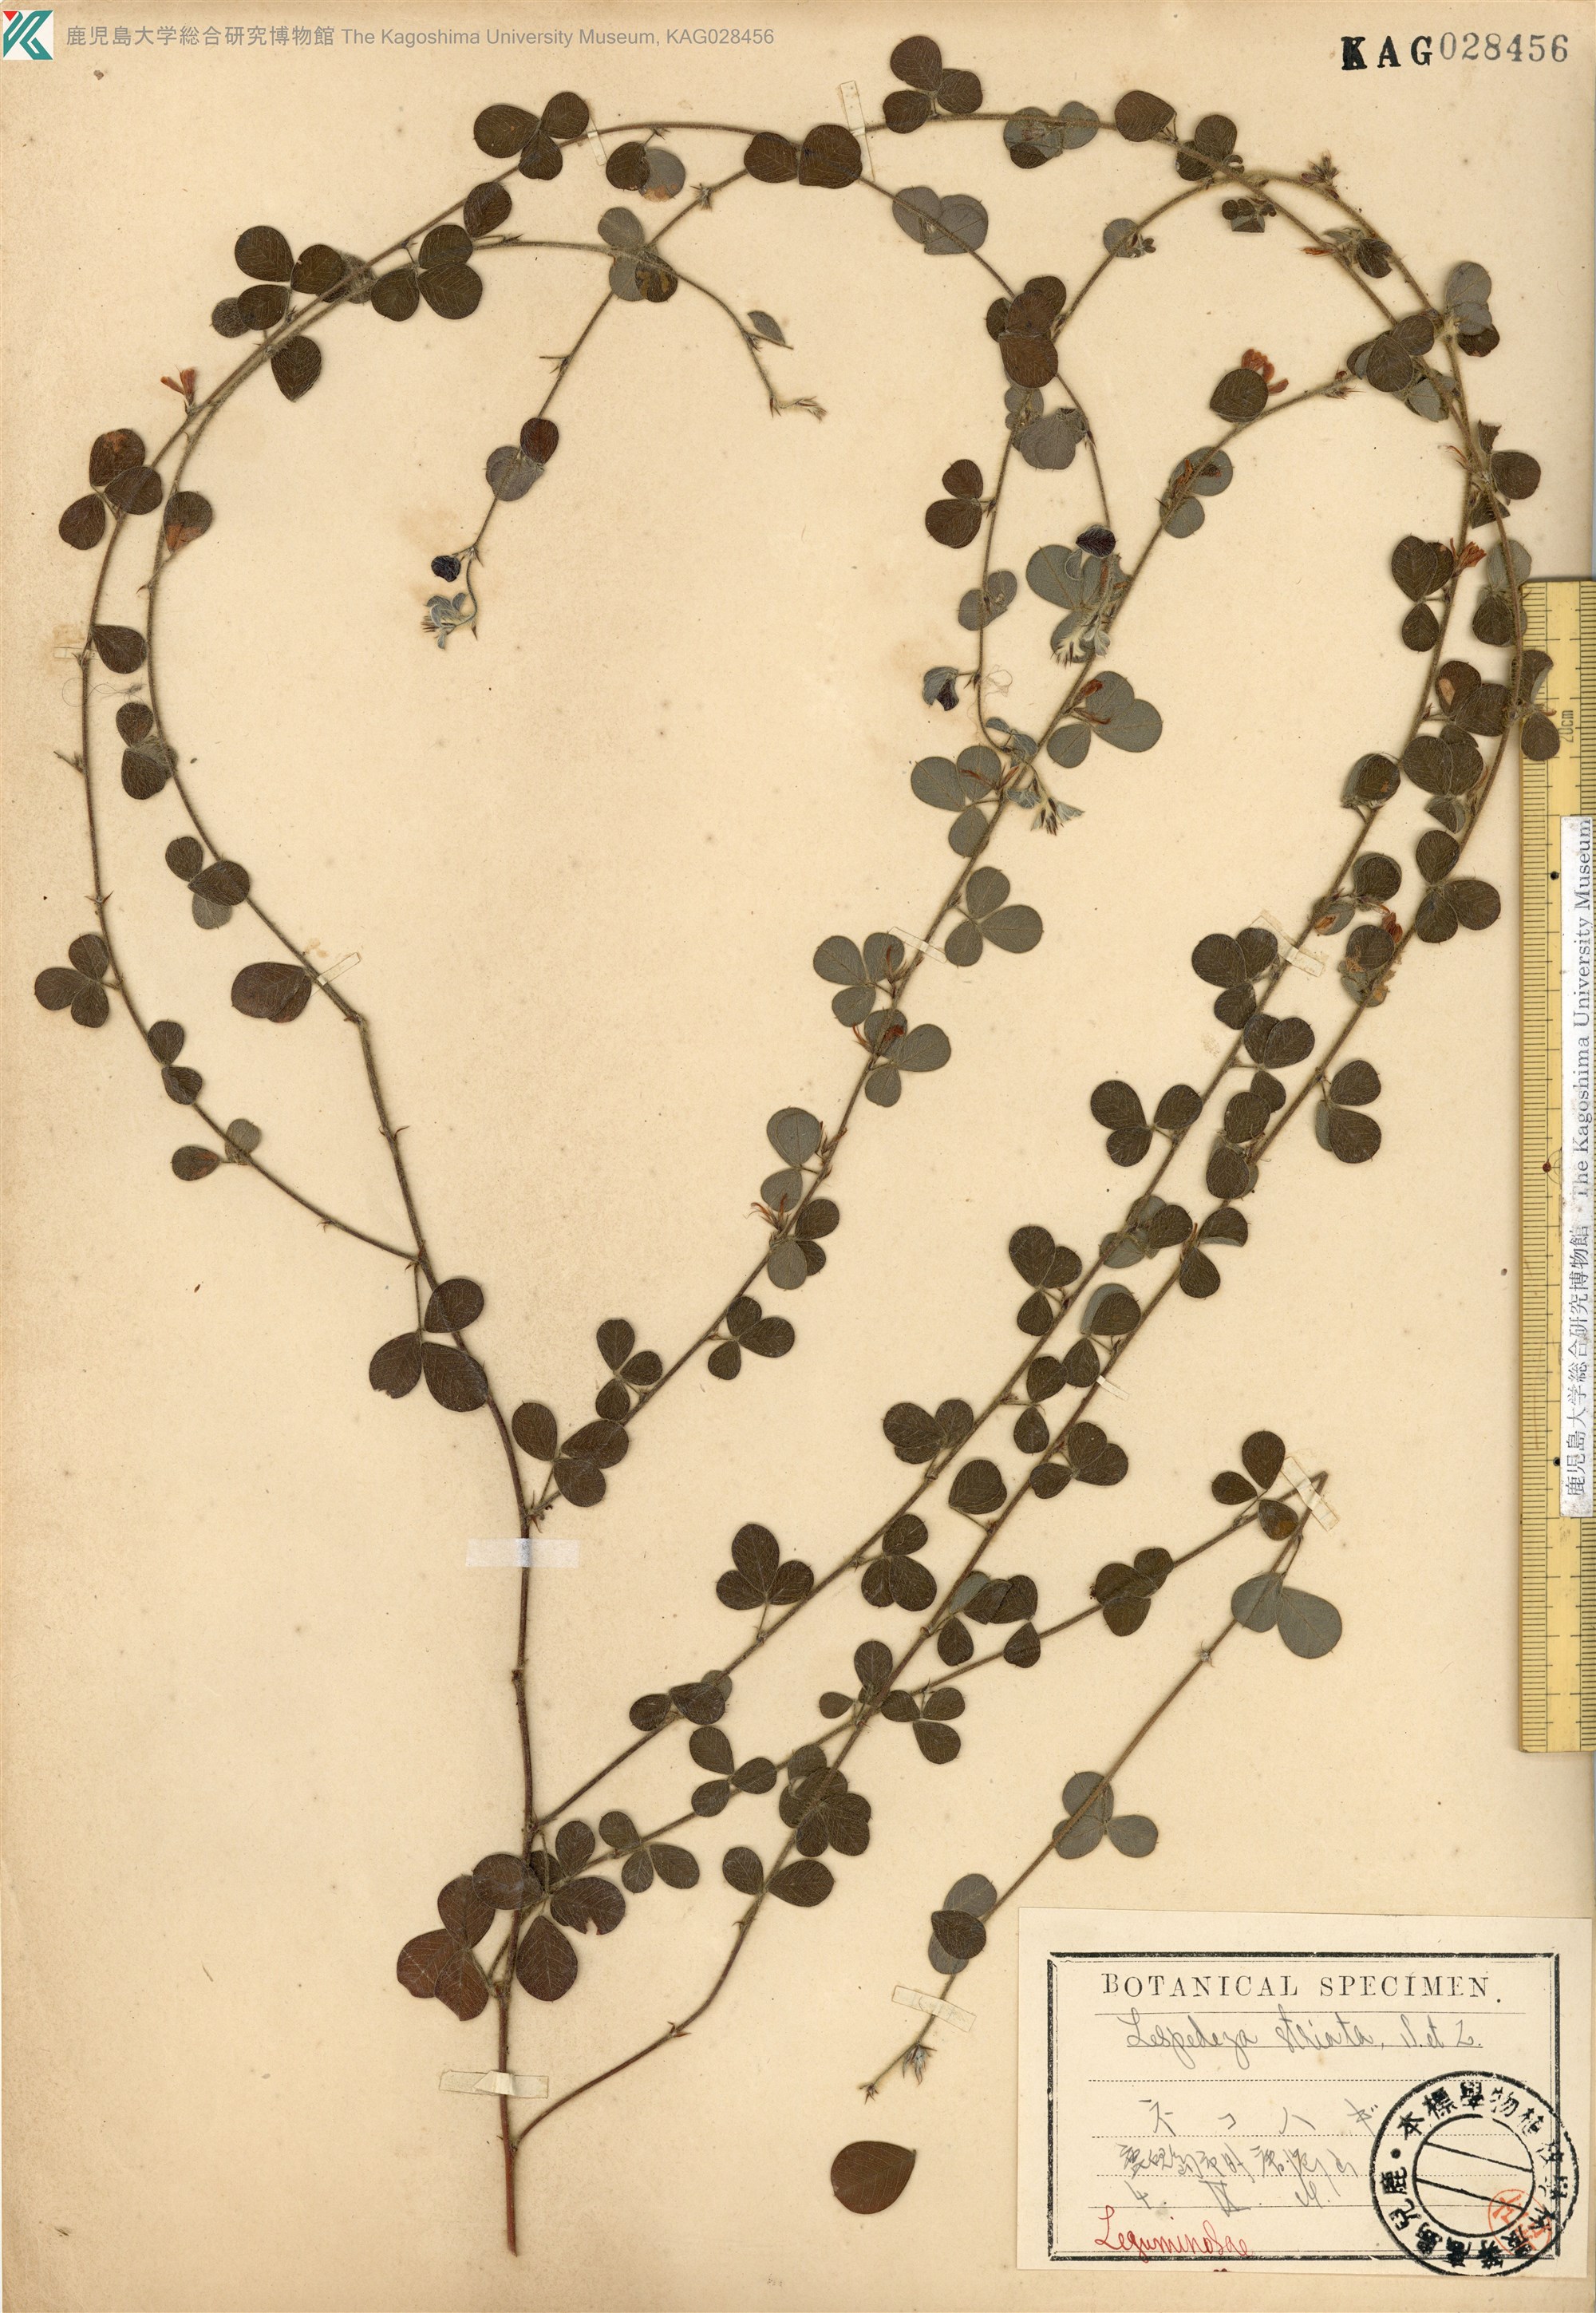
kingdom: Plantae
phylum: Tracheophyta
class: Magnoliopsida
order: Fabales
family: Fabaceae
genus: Lespedeza
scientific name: Lespedeza pilosa
